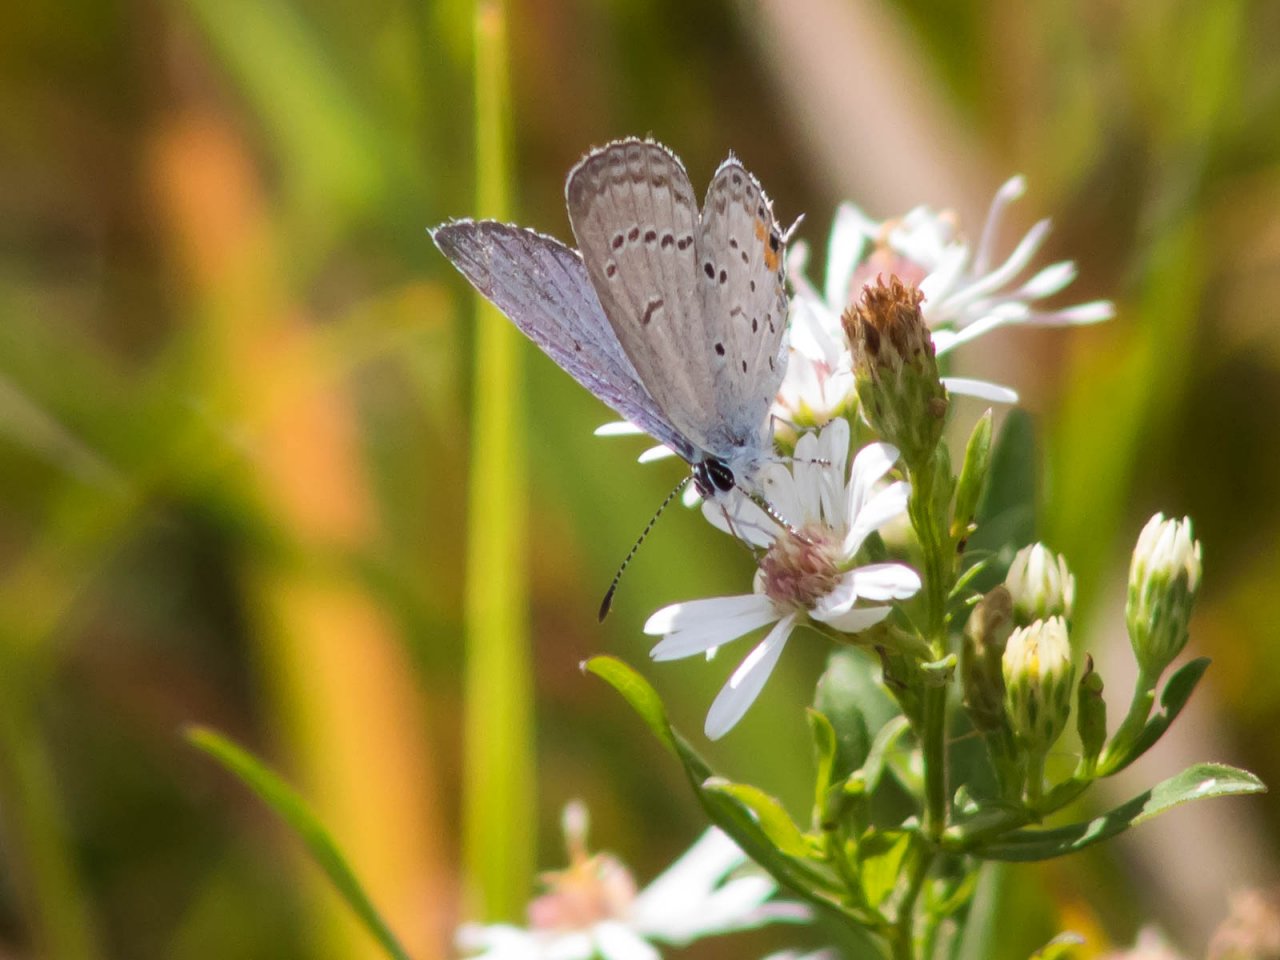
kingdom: Animalia
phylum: Arthropoda
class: Insecta
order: Lepidoptera
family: Lycaenidae
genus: Elkalyce
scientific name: Elkalyce comyntas
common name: Eastern Tailed-Blue
